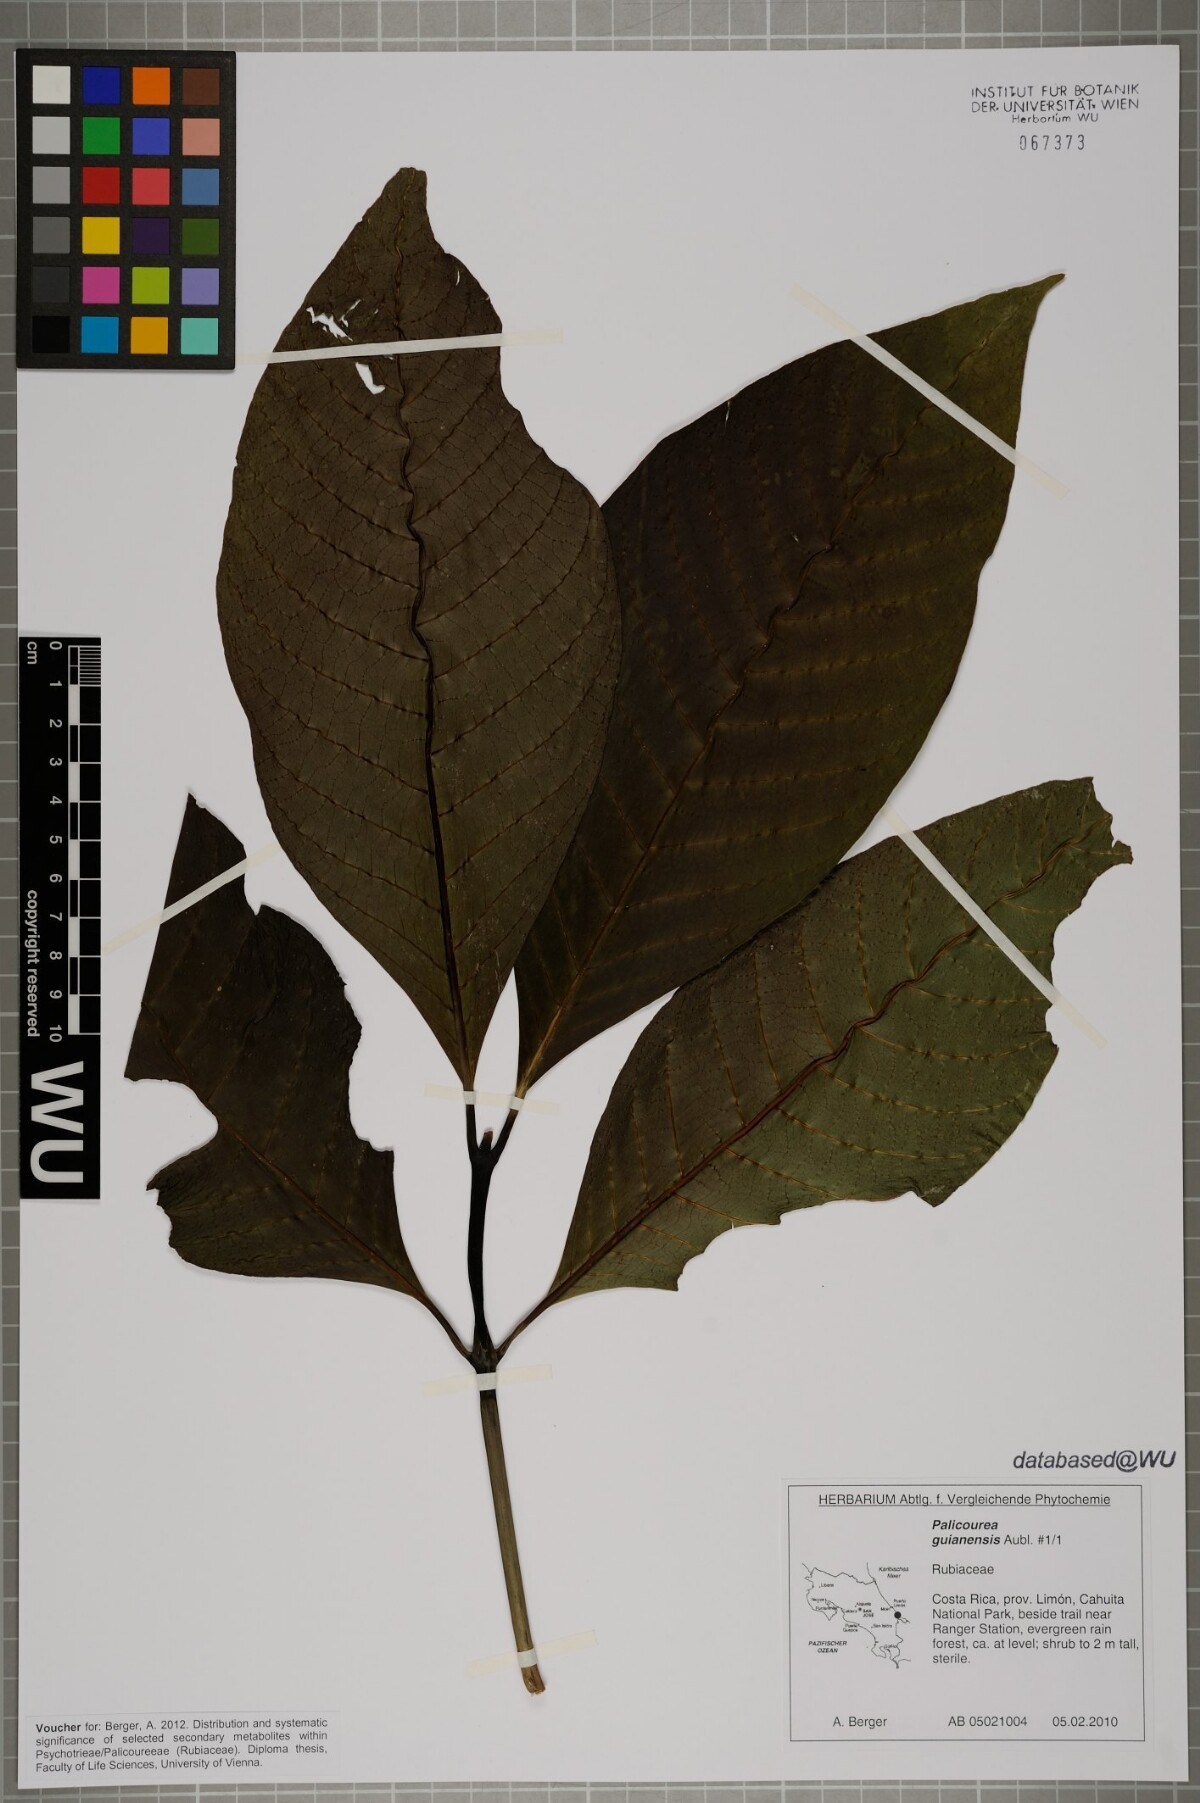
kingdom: Plantae
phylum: Tracheophyta
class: Magnoliopsida
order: Gentianales
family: Rubiaceae
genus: Palicourea
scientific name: Palicourea guianensis
